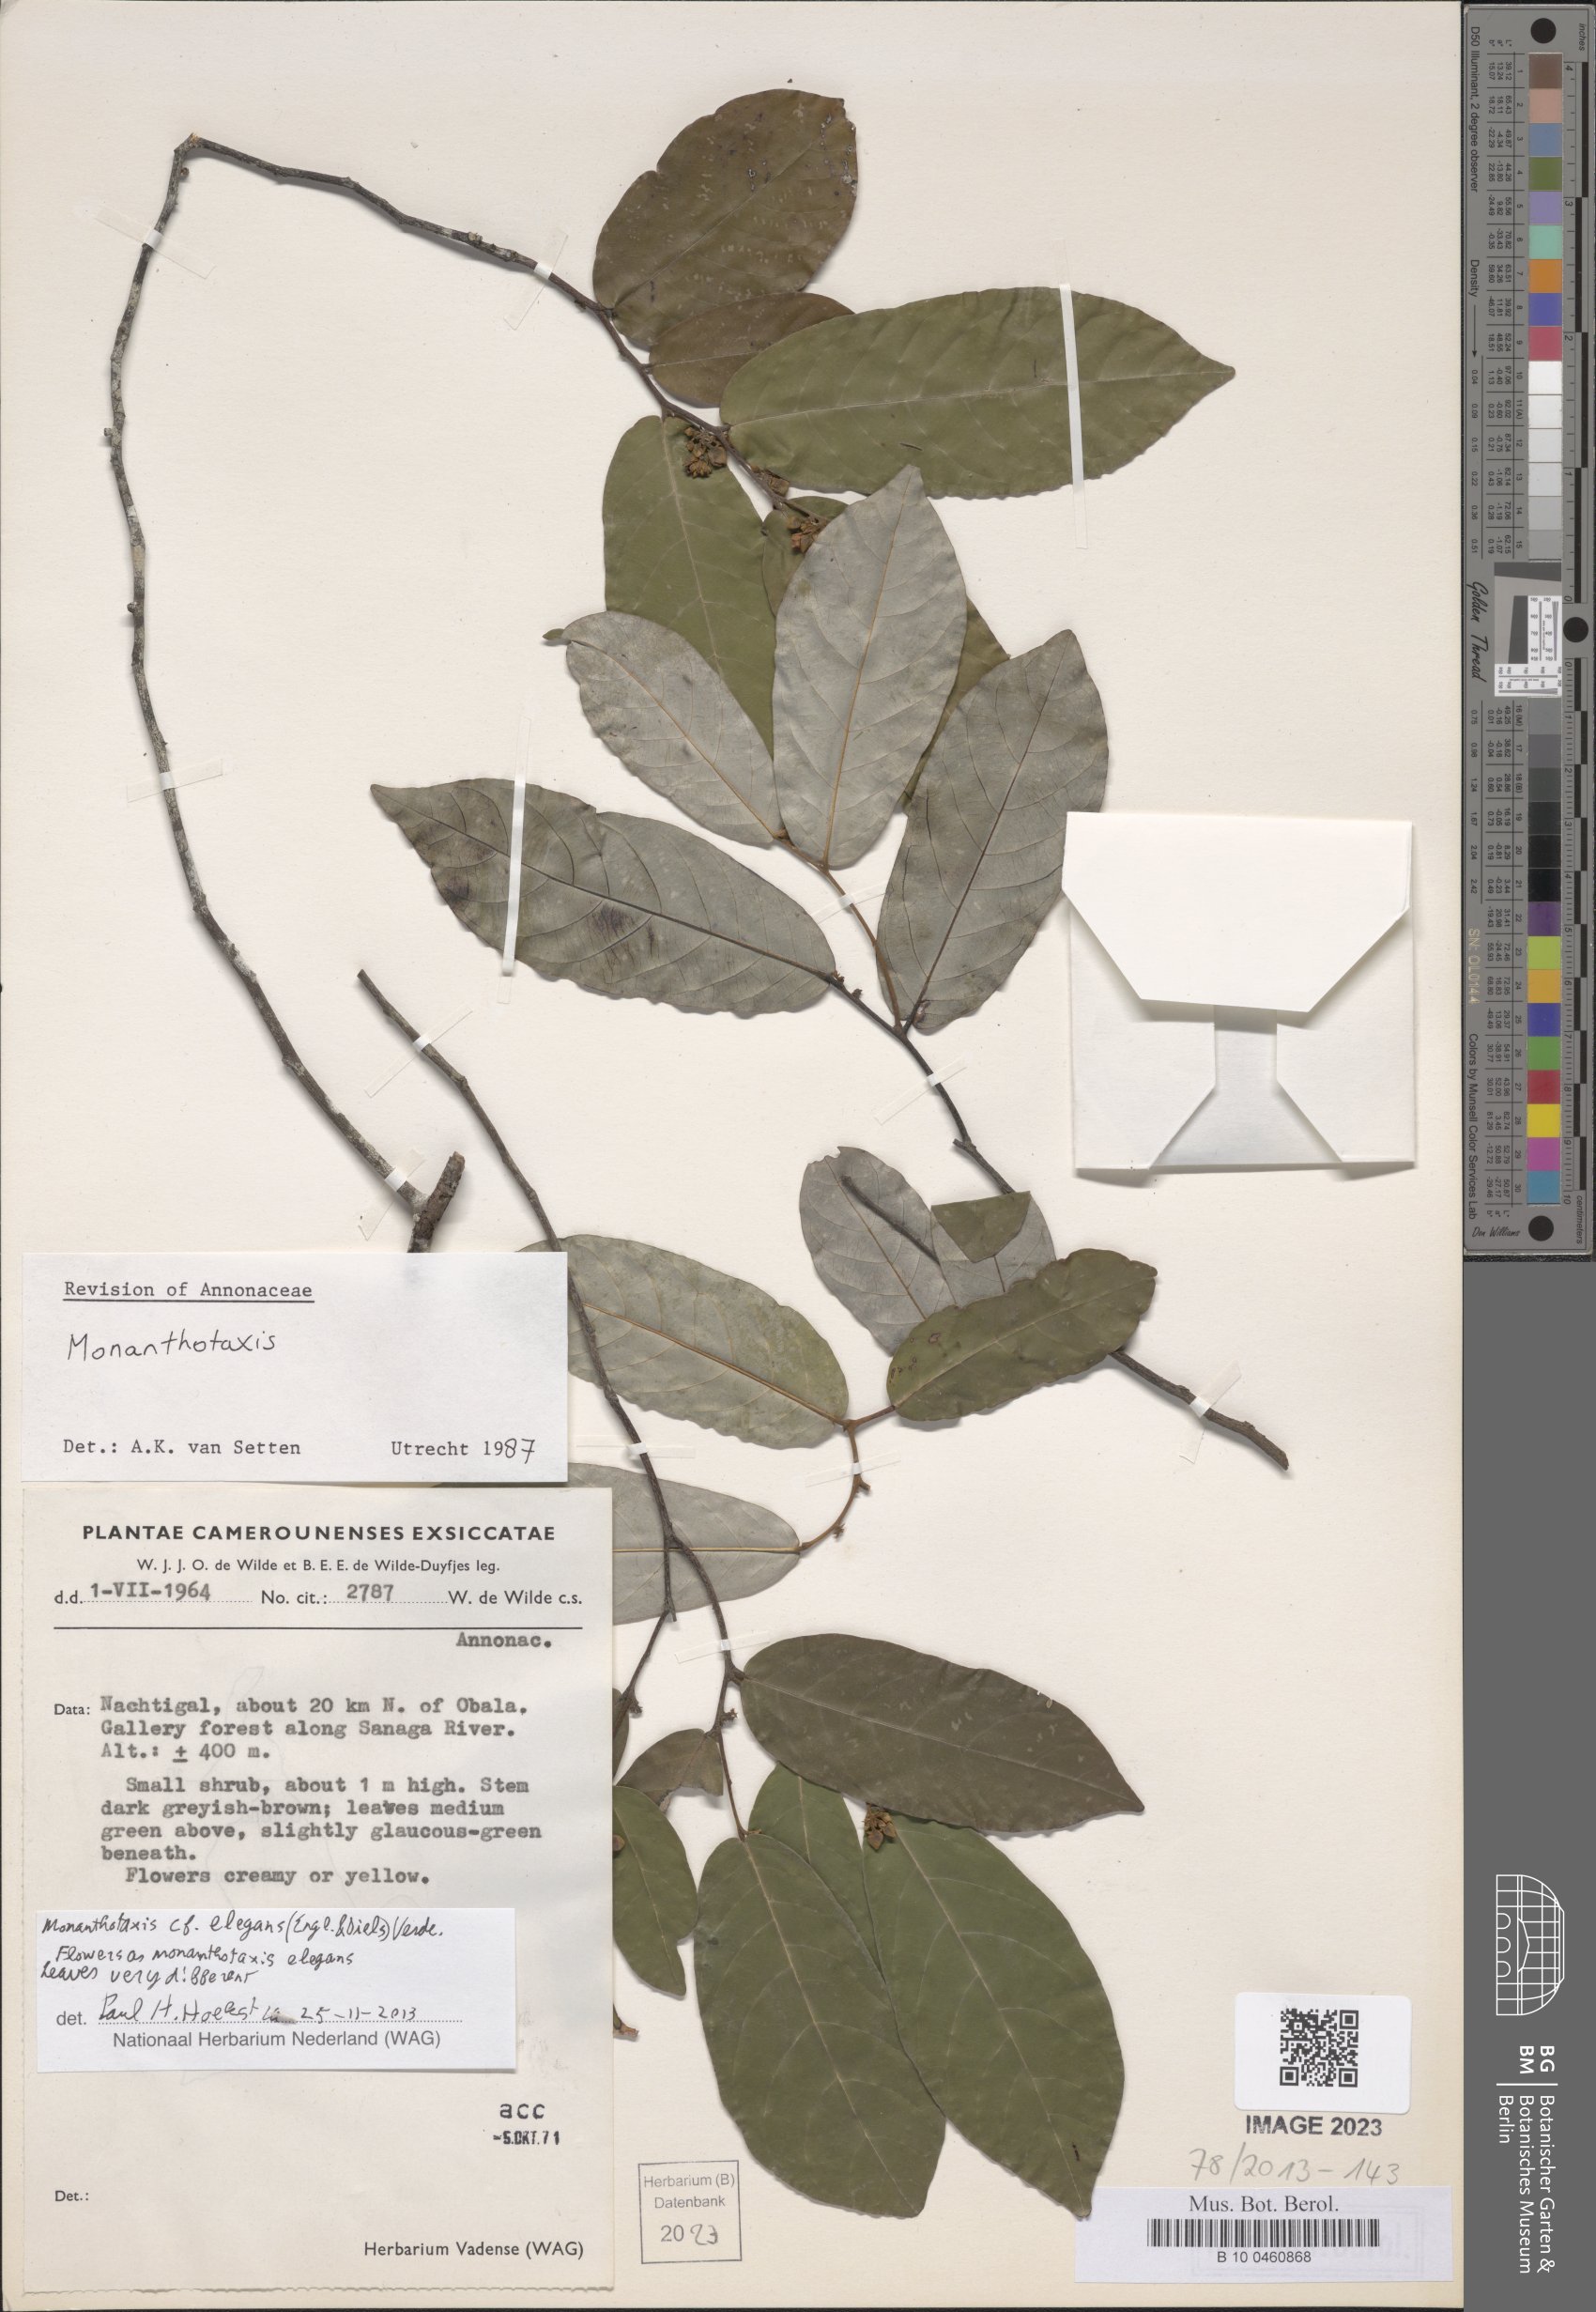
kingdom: Plantae
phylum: Tracheophyta
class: Magnoliopsida
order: Magnoliales
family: Annonaceae
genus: Monanthotaxis
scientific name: Monanthotaxis elegans
